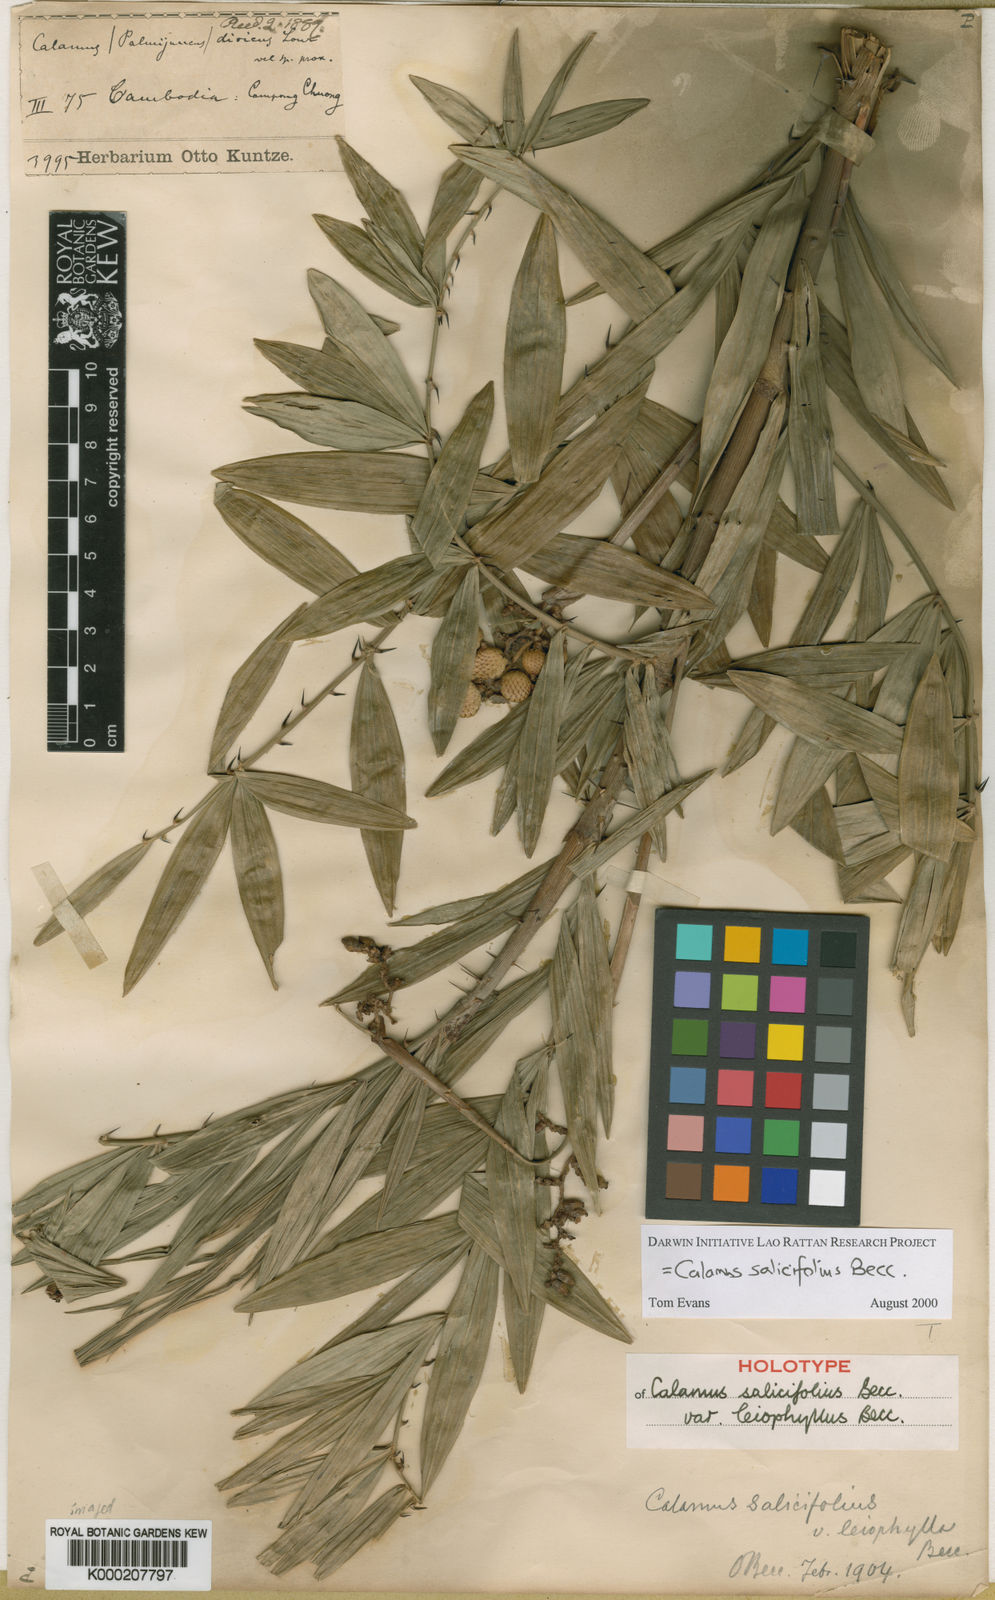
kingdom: Plantae
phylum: Tracheophyta
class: Liliopsida
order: Arecales
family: Arecaceae
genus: Calamus
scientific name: Calamus salicifolius
